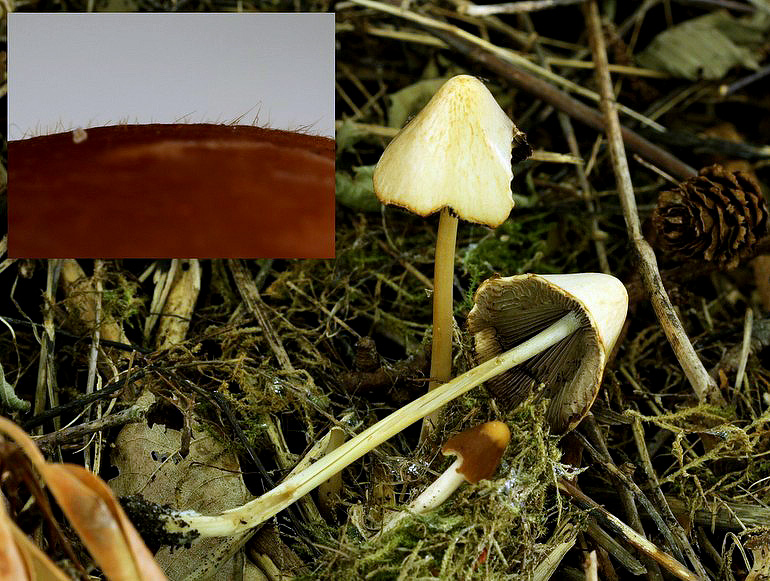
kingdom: Fungi
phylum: Basidiomycota
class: Agaricomycetes
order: Agaricales
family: Psathyrellaceae
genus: Parasola
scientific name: Parasola conopilea
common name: kegle-hjulhat
